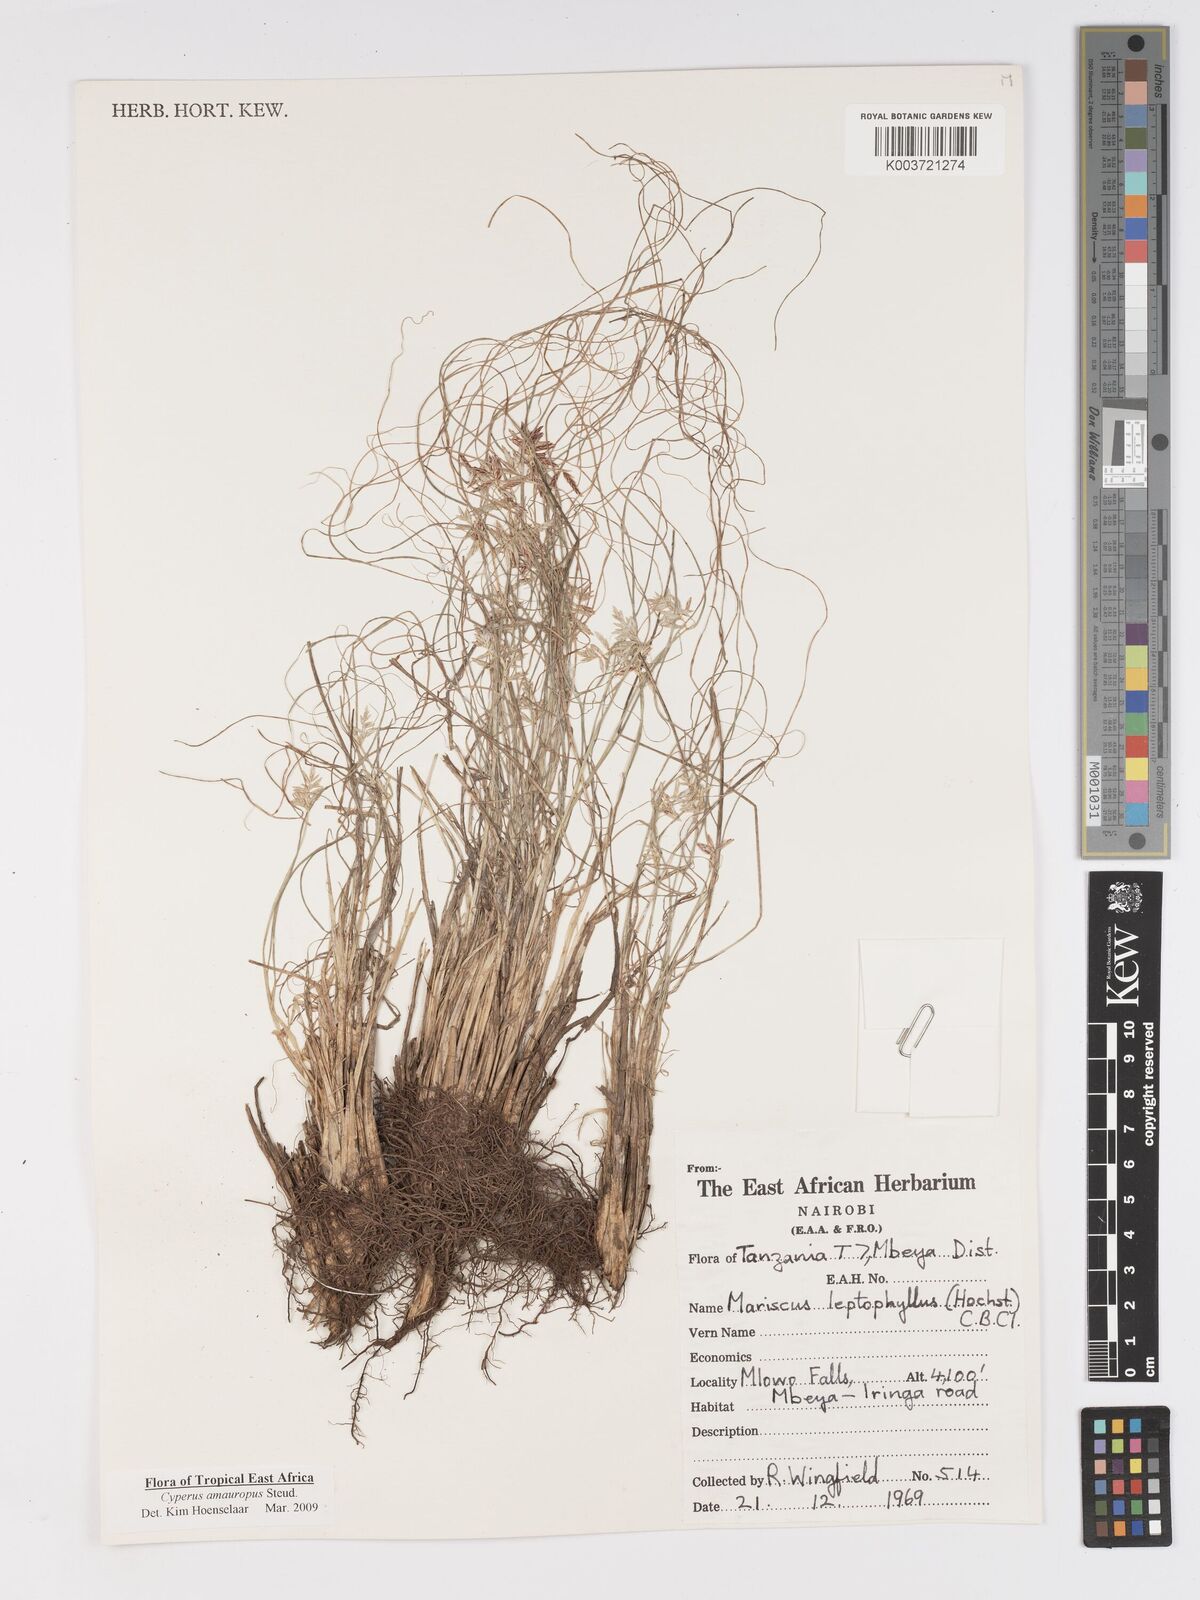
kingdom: Plantae
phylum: Tracheophyta
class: Liliopsida
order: Poales
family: Cyperaceae
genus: Cyperus
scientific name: Cyperus amauropus
